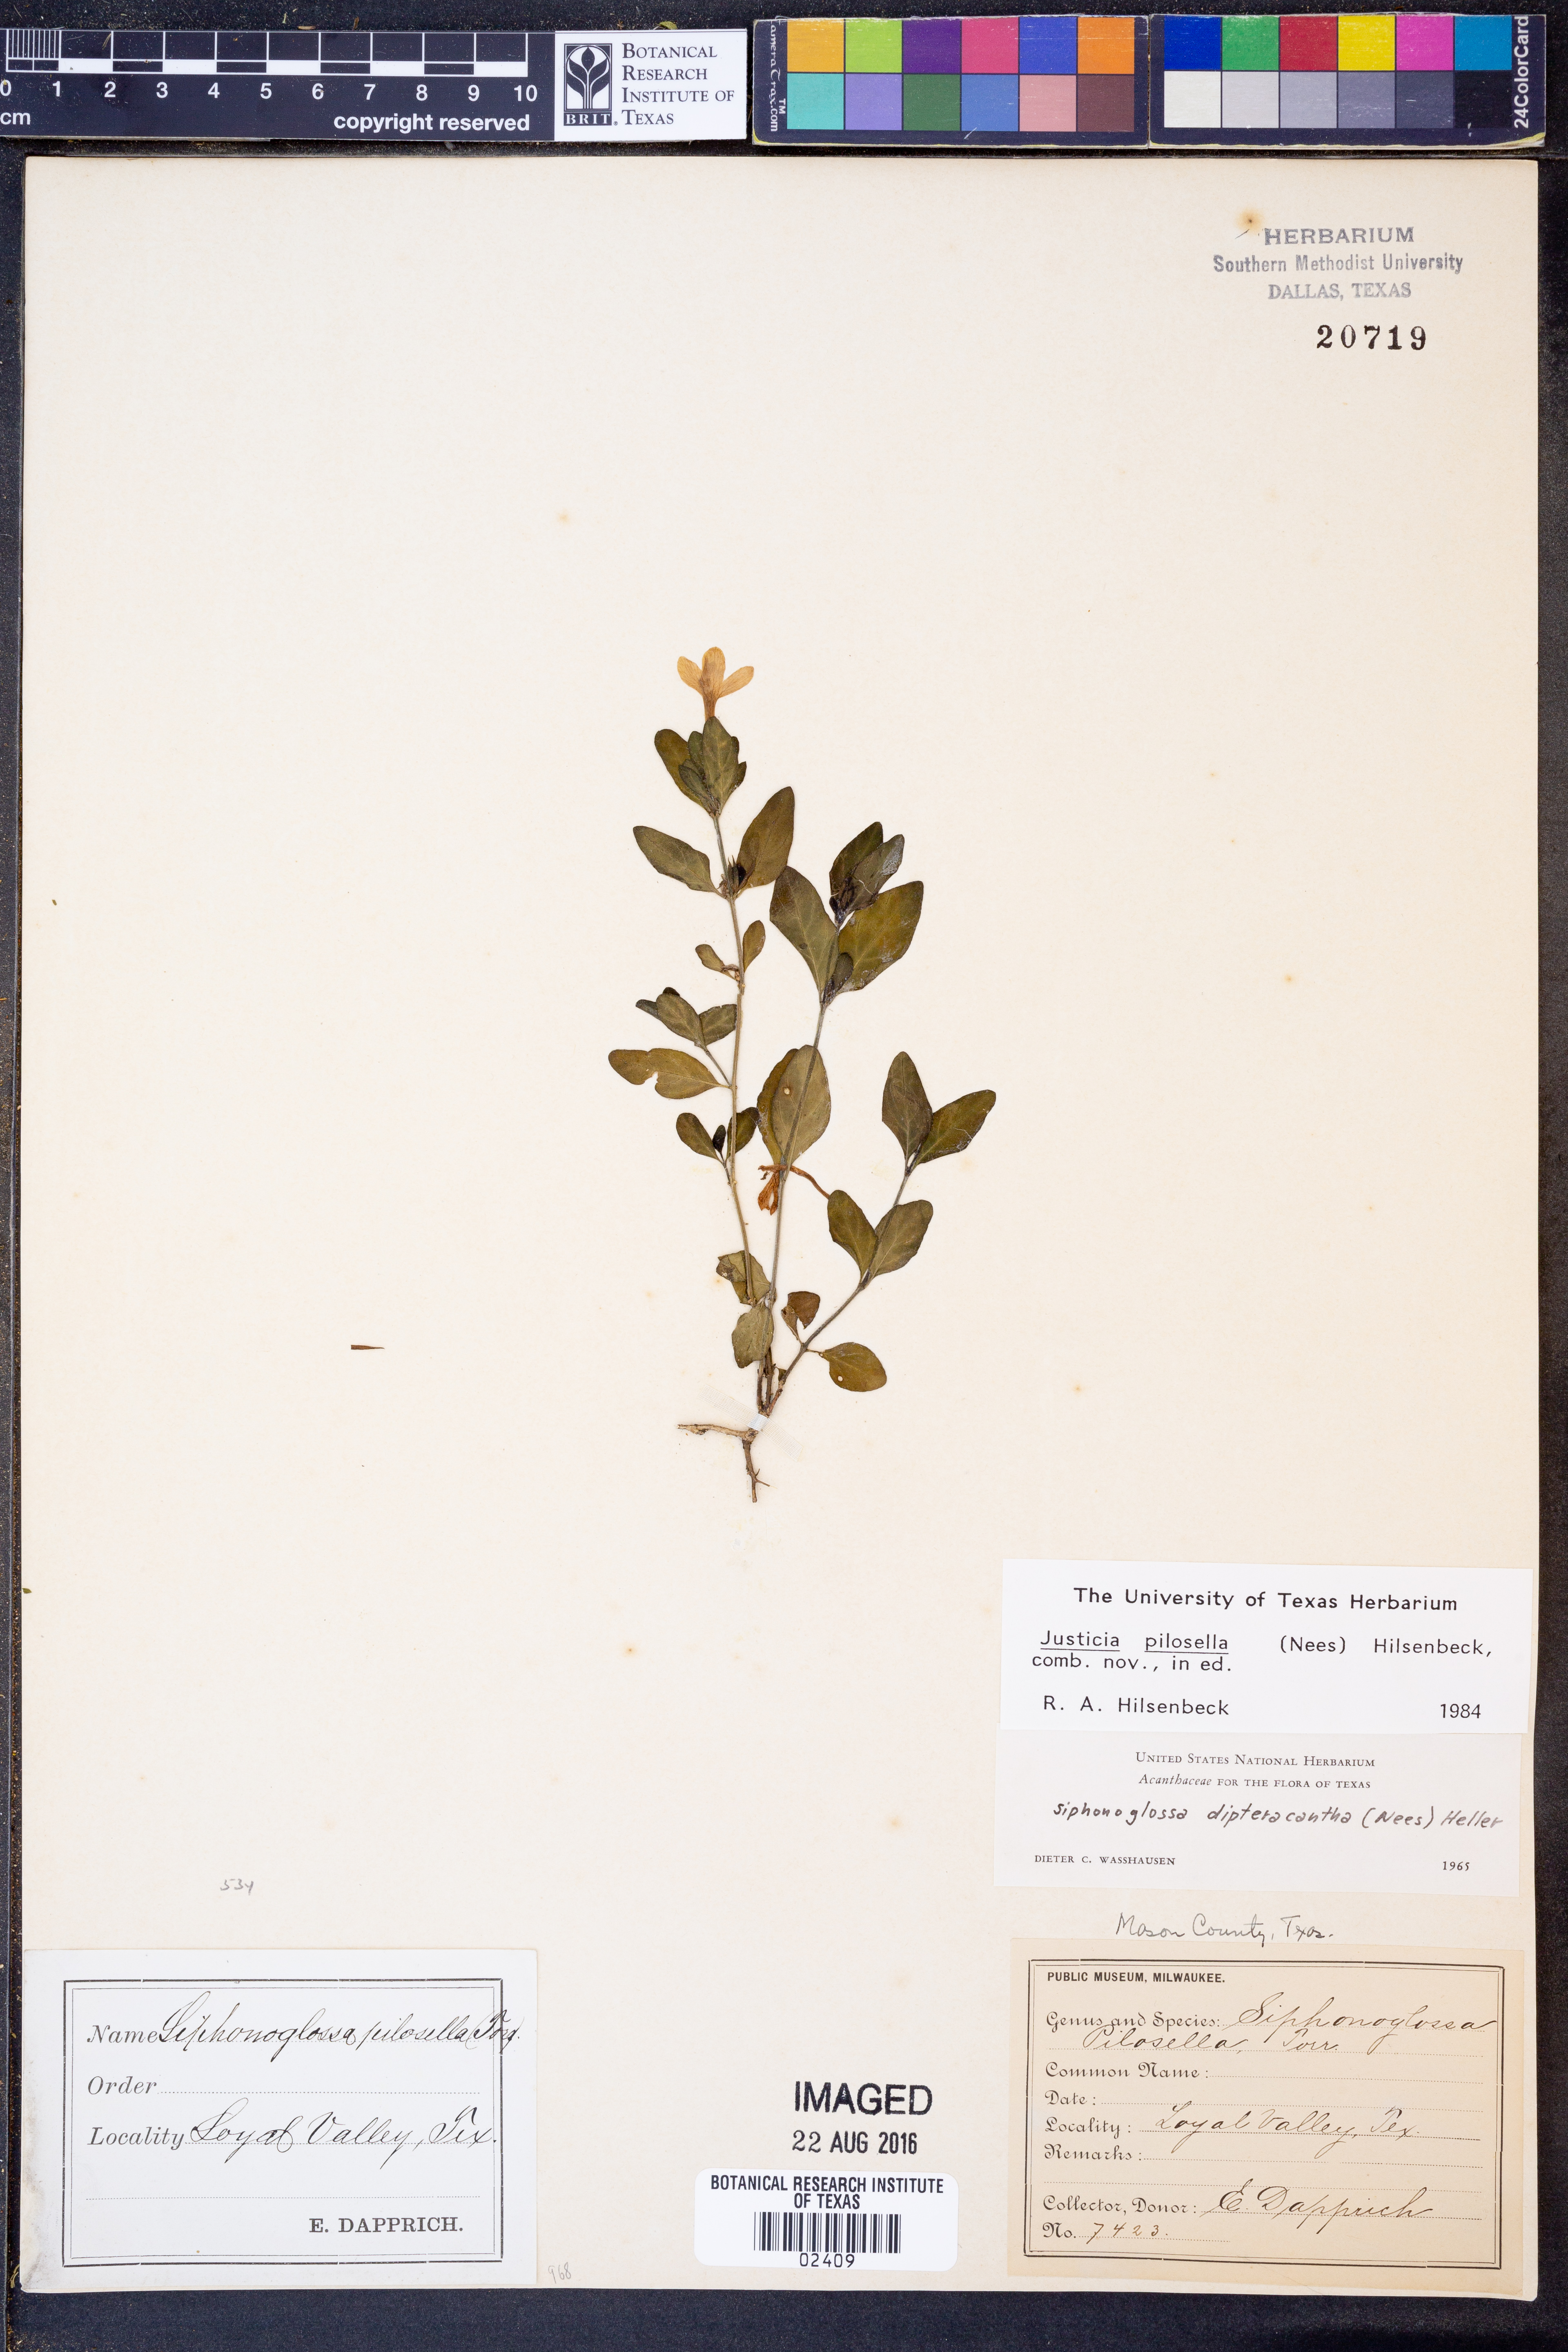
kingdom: Plantae
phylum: Tracheophyta
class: Magnoliopsida
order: Lamiales
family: Acanthaceae
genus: Justicia
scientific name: Justicia pilosella
